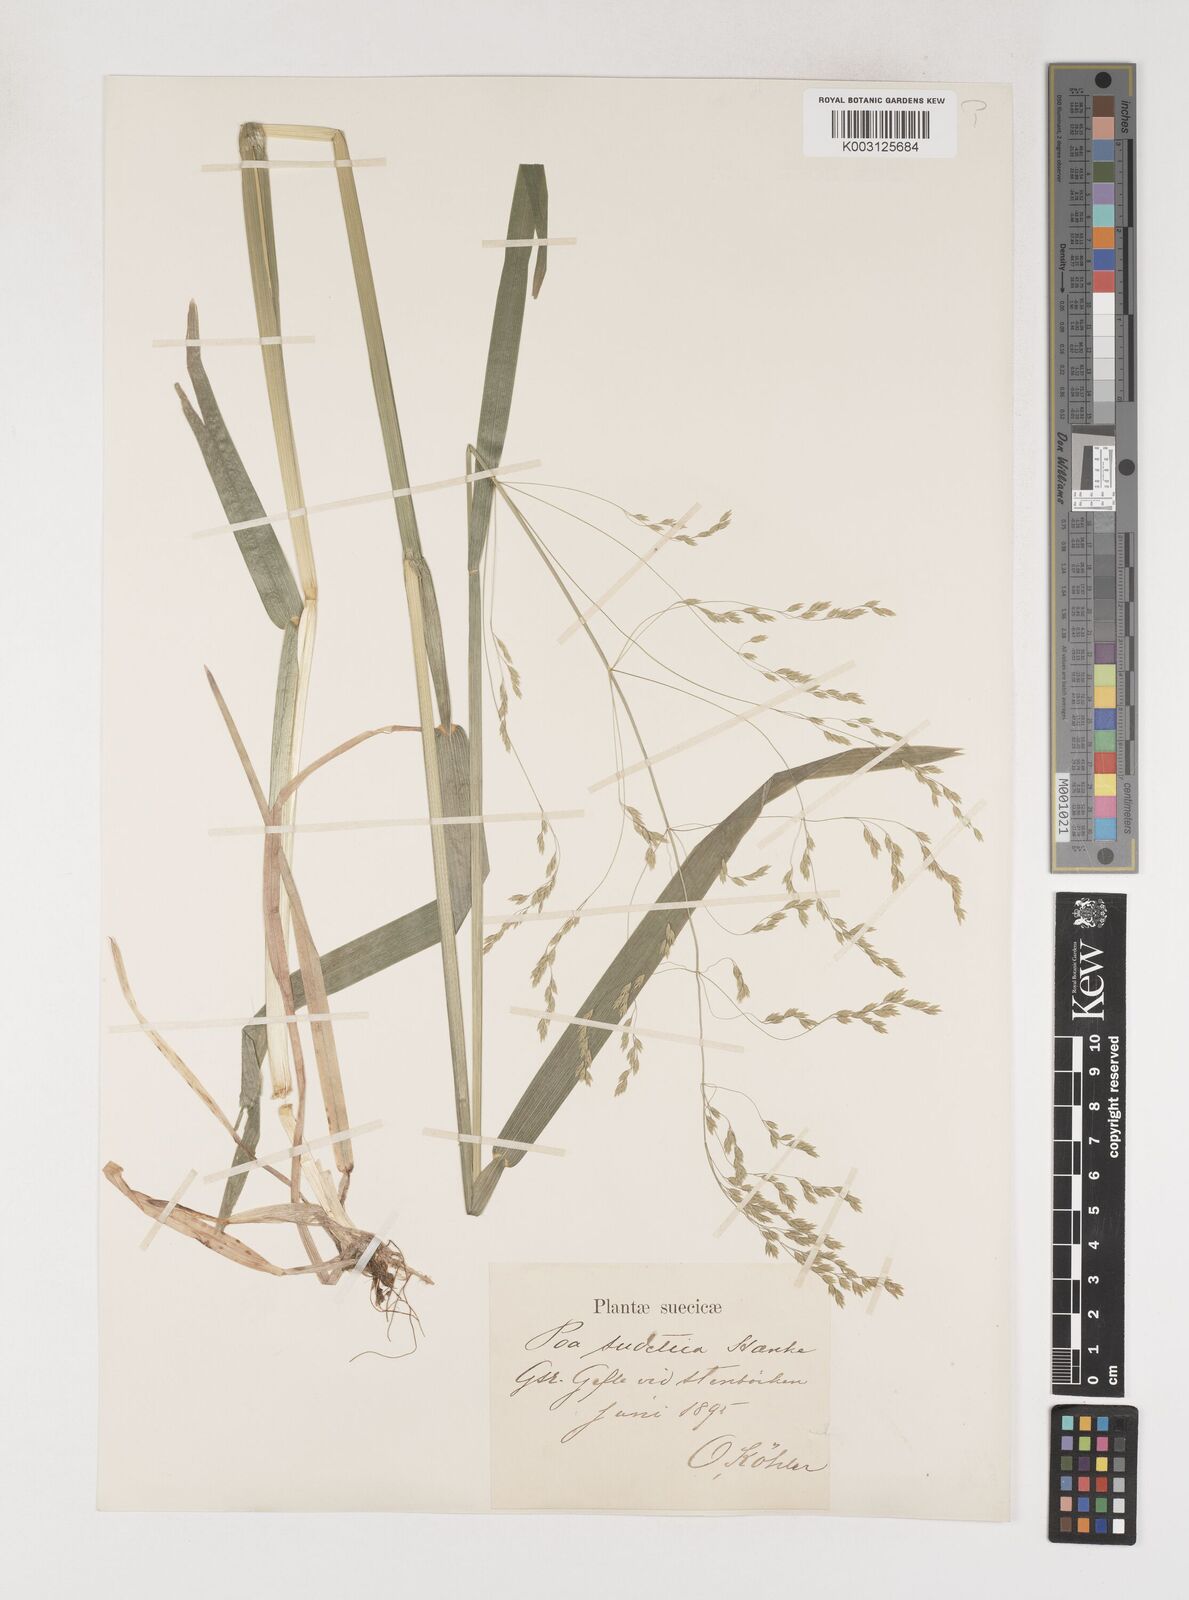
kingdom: Plantae
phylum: Tracheophyta
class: Liliopsida
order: Poales
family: Poaceae
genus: Poa
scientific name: Poa chaixii
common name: Broad-leaved meadow-grass
